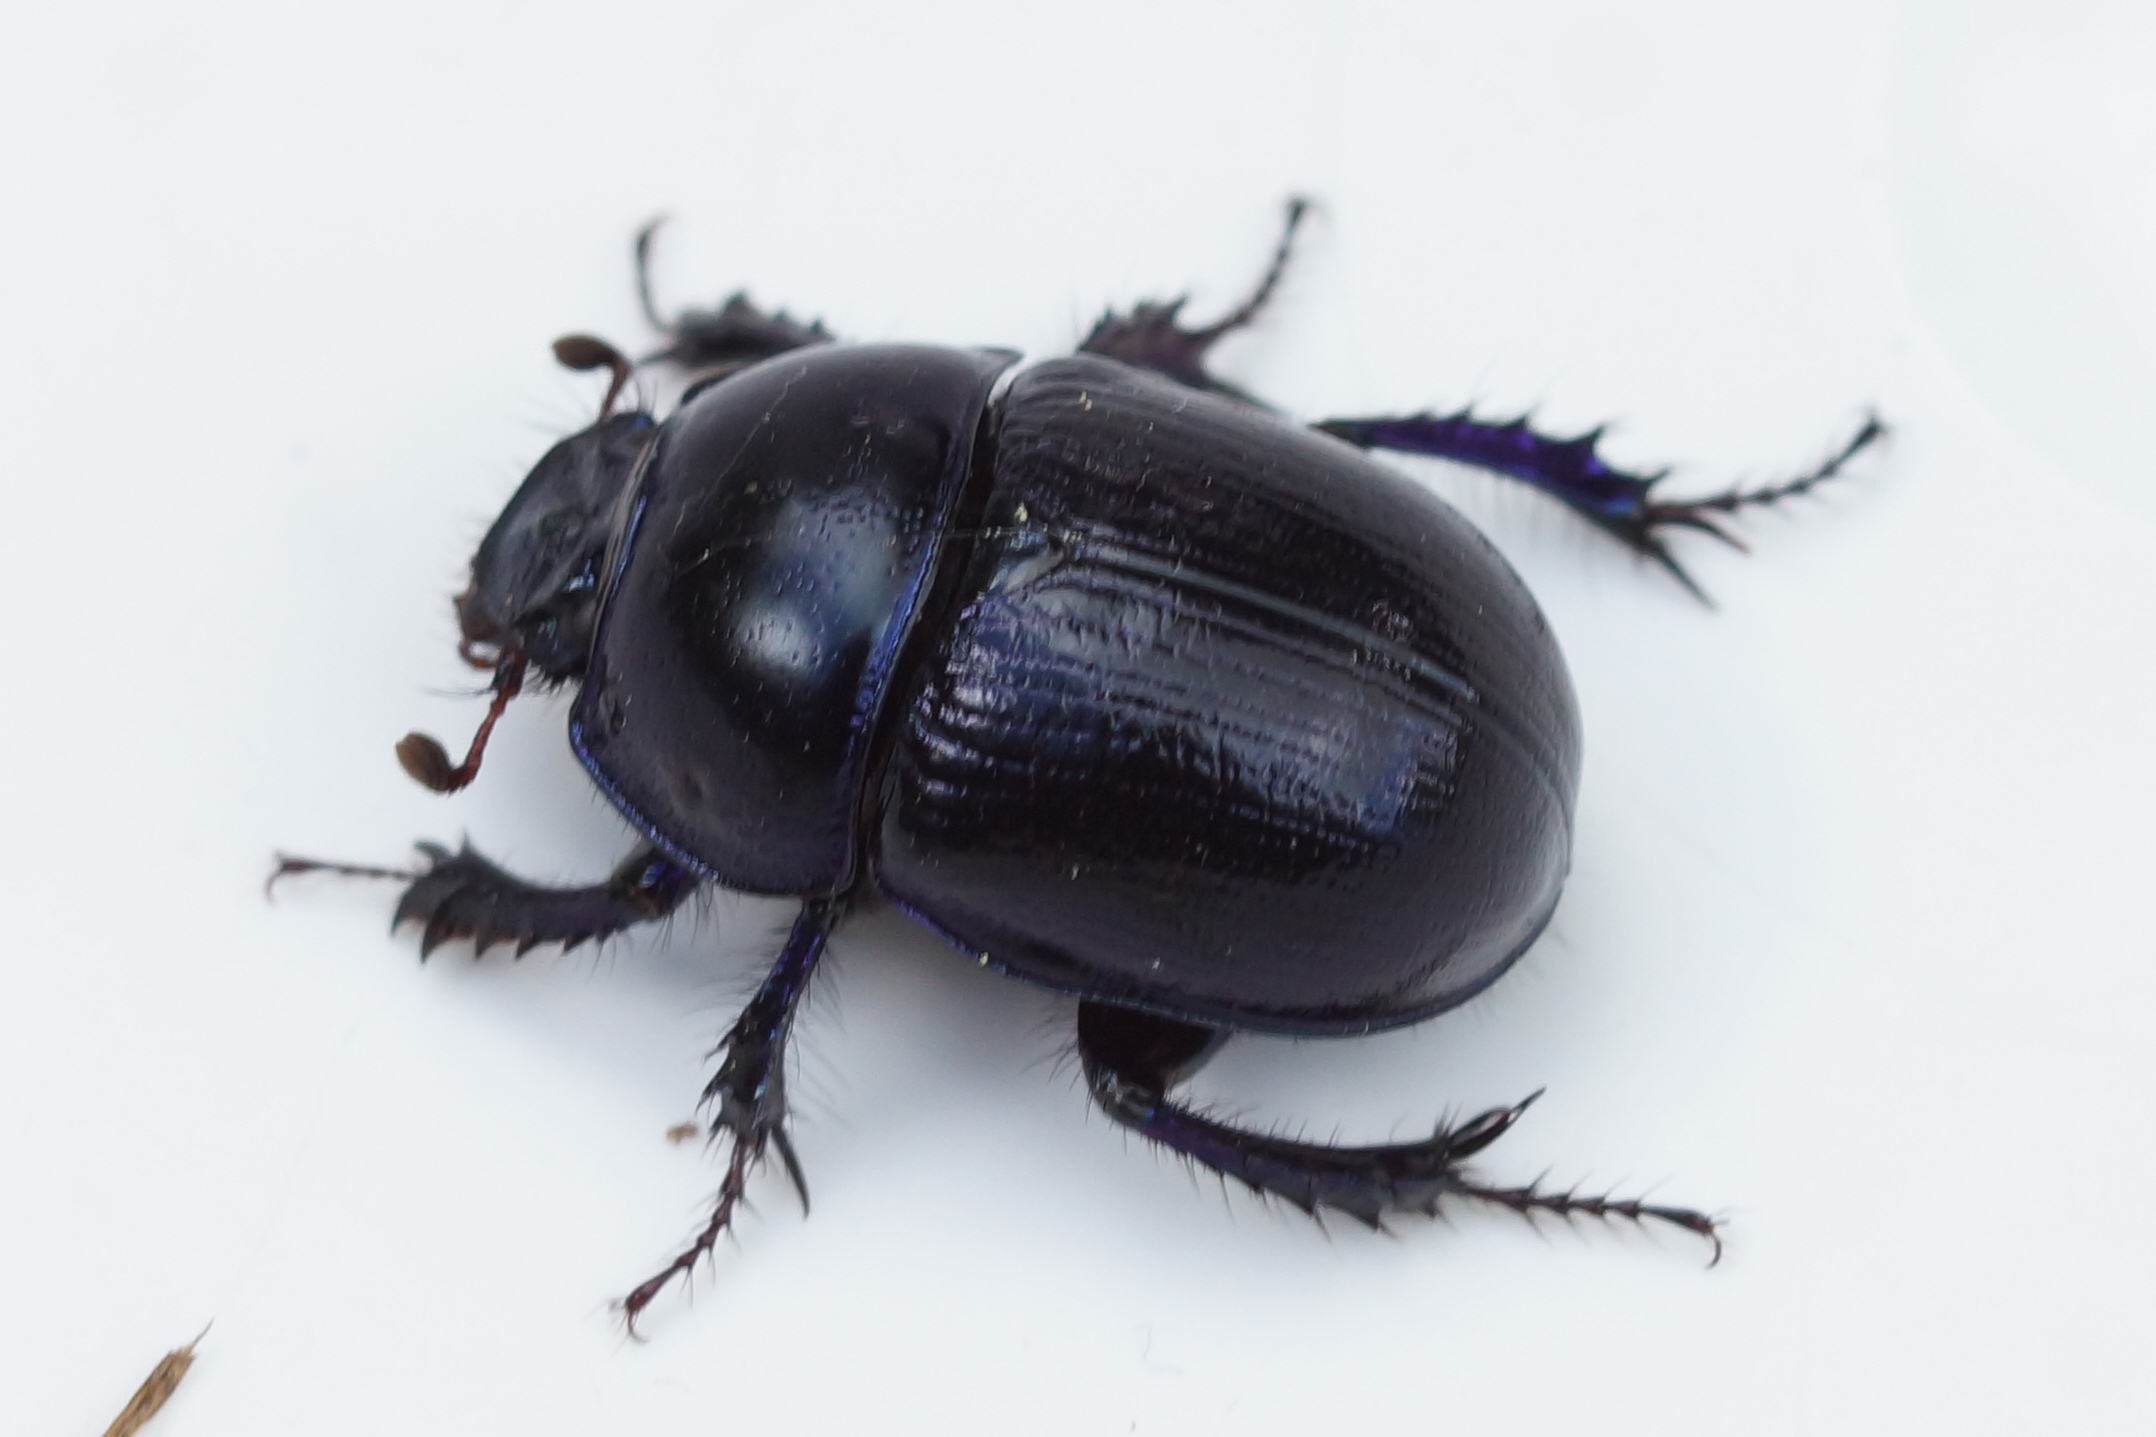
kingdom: Animalia
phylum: Arthropoda
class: Insecta
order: Coleoptera
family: Geotrupidae
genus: Anoplotrupes
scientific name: Anoplotrupes stercorosus
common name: Skovskarnbasse
